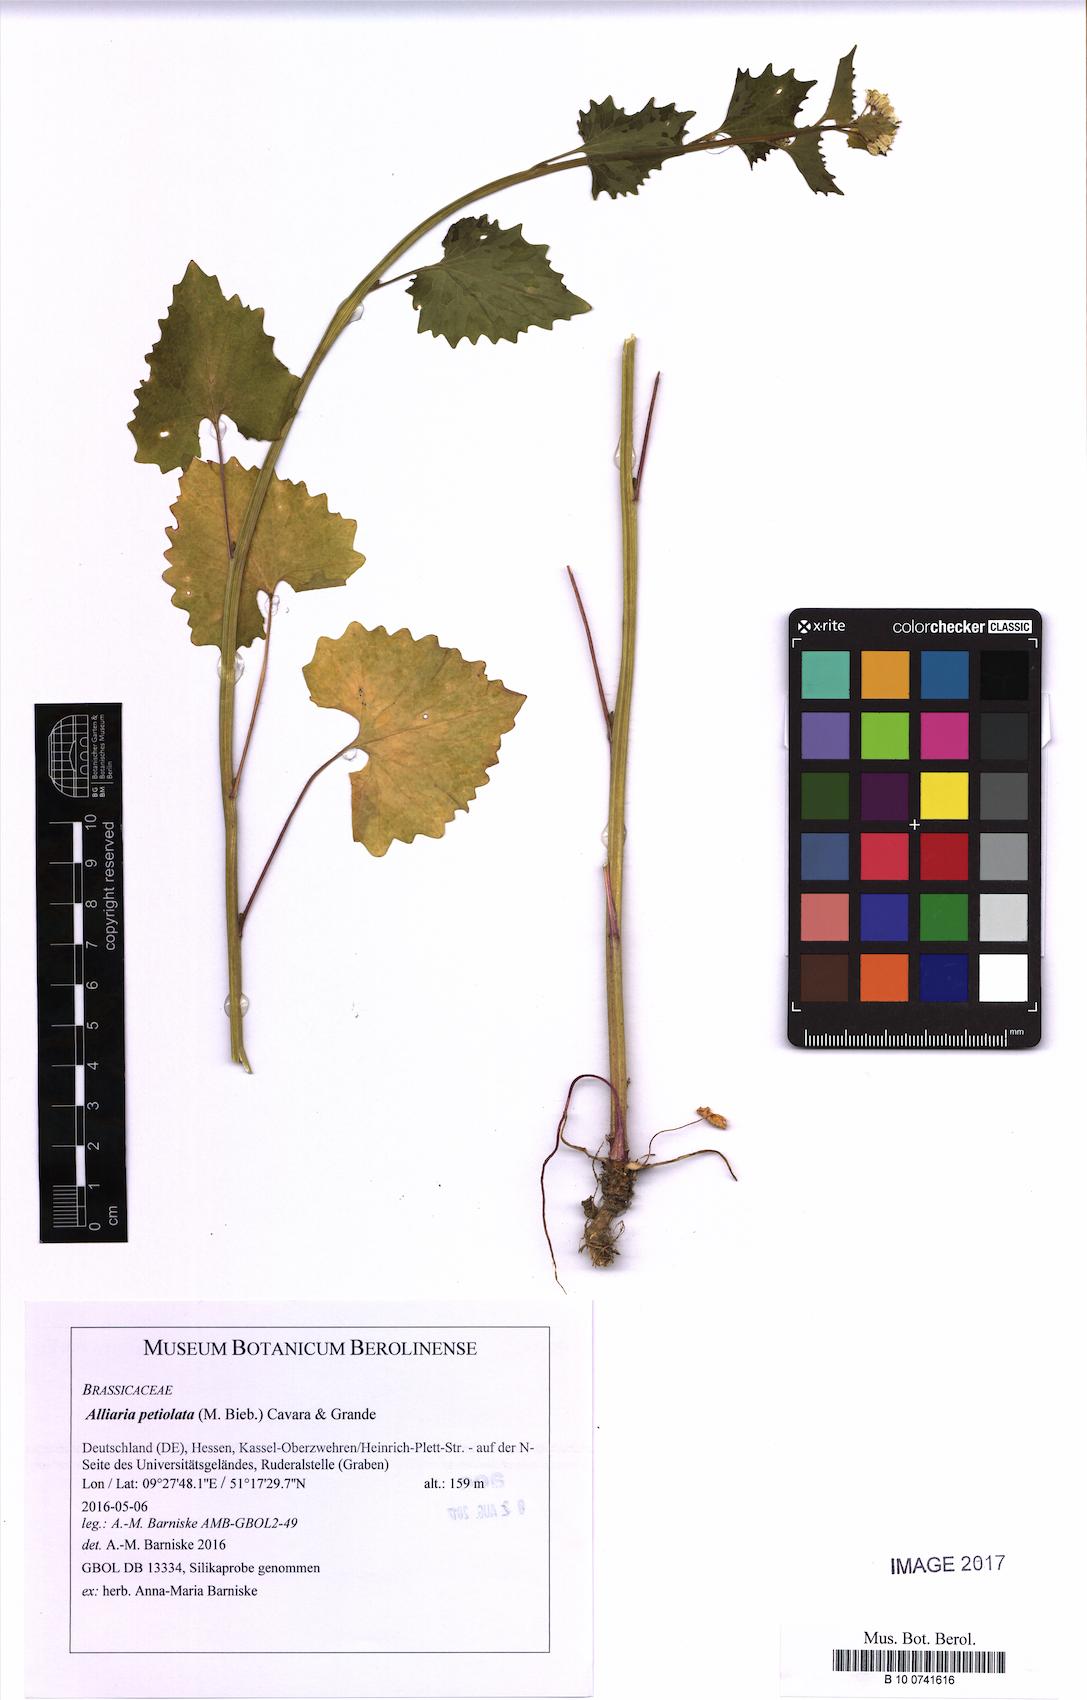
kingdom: Plantae
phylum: Tracheophyta
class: Magnoliopsida
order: Brassicales
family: Brassicaceae
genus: Alliaria
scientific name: Alliaria petiolata
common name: Garlic mustard
